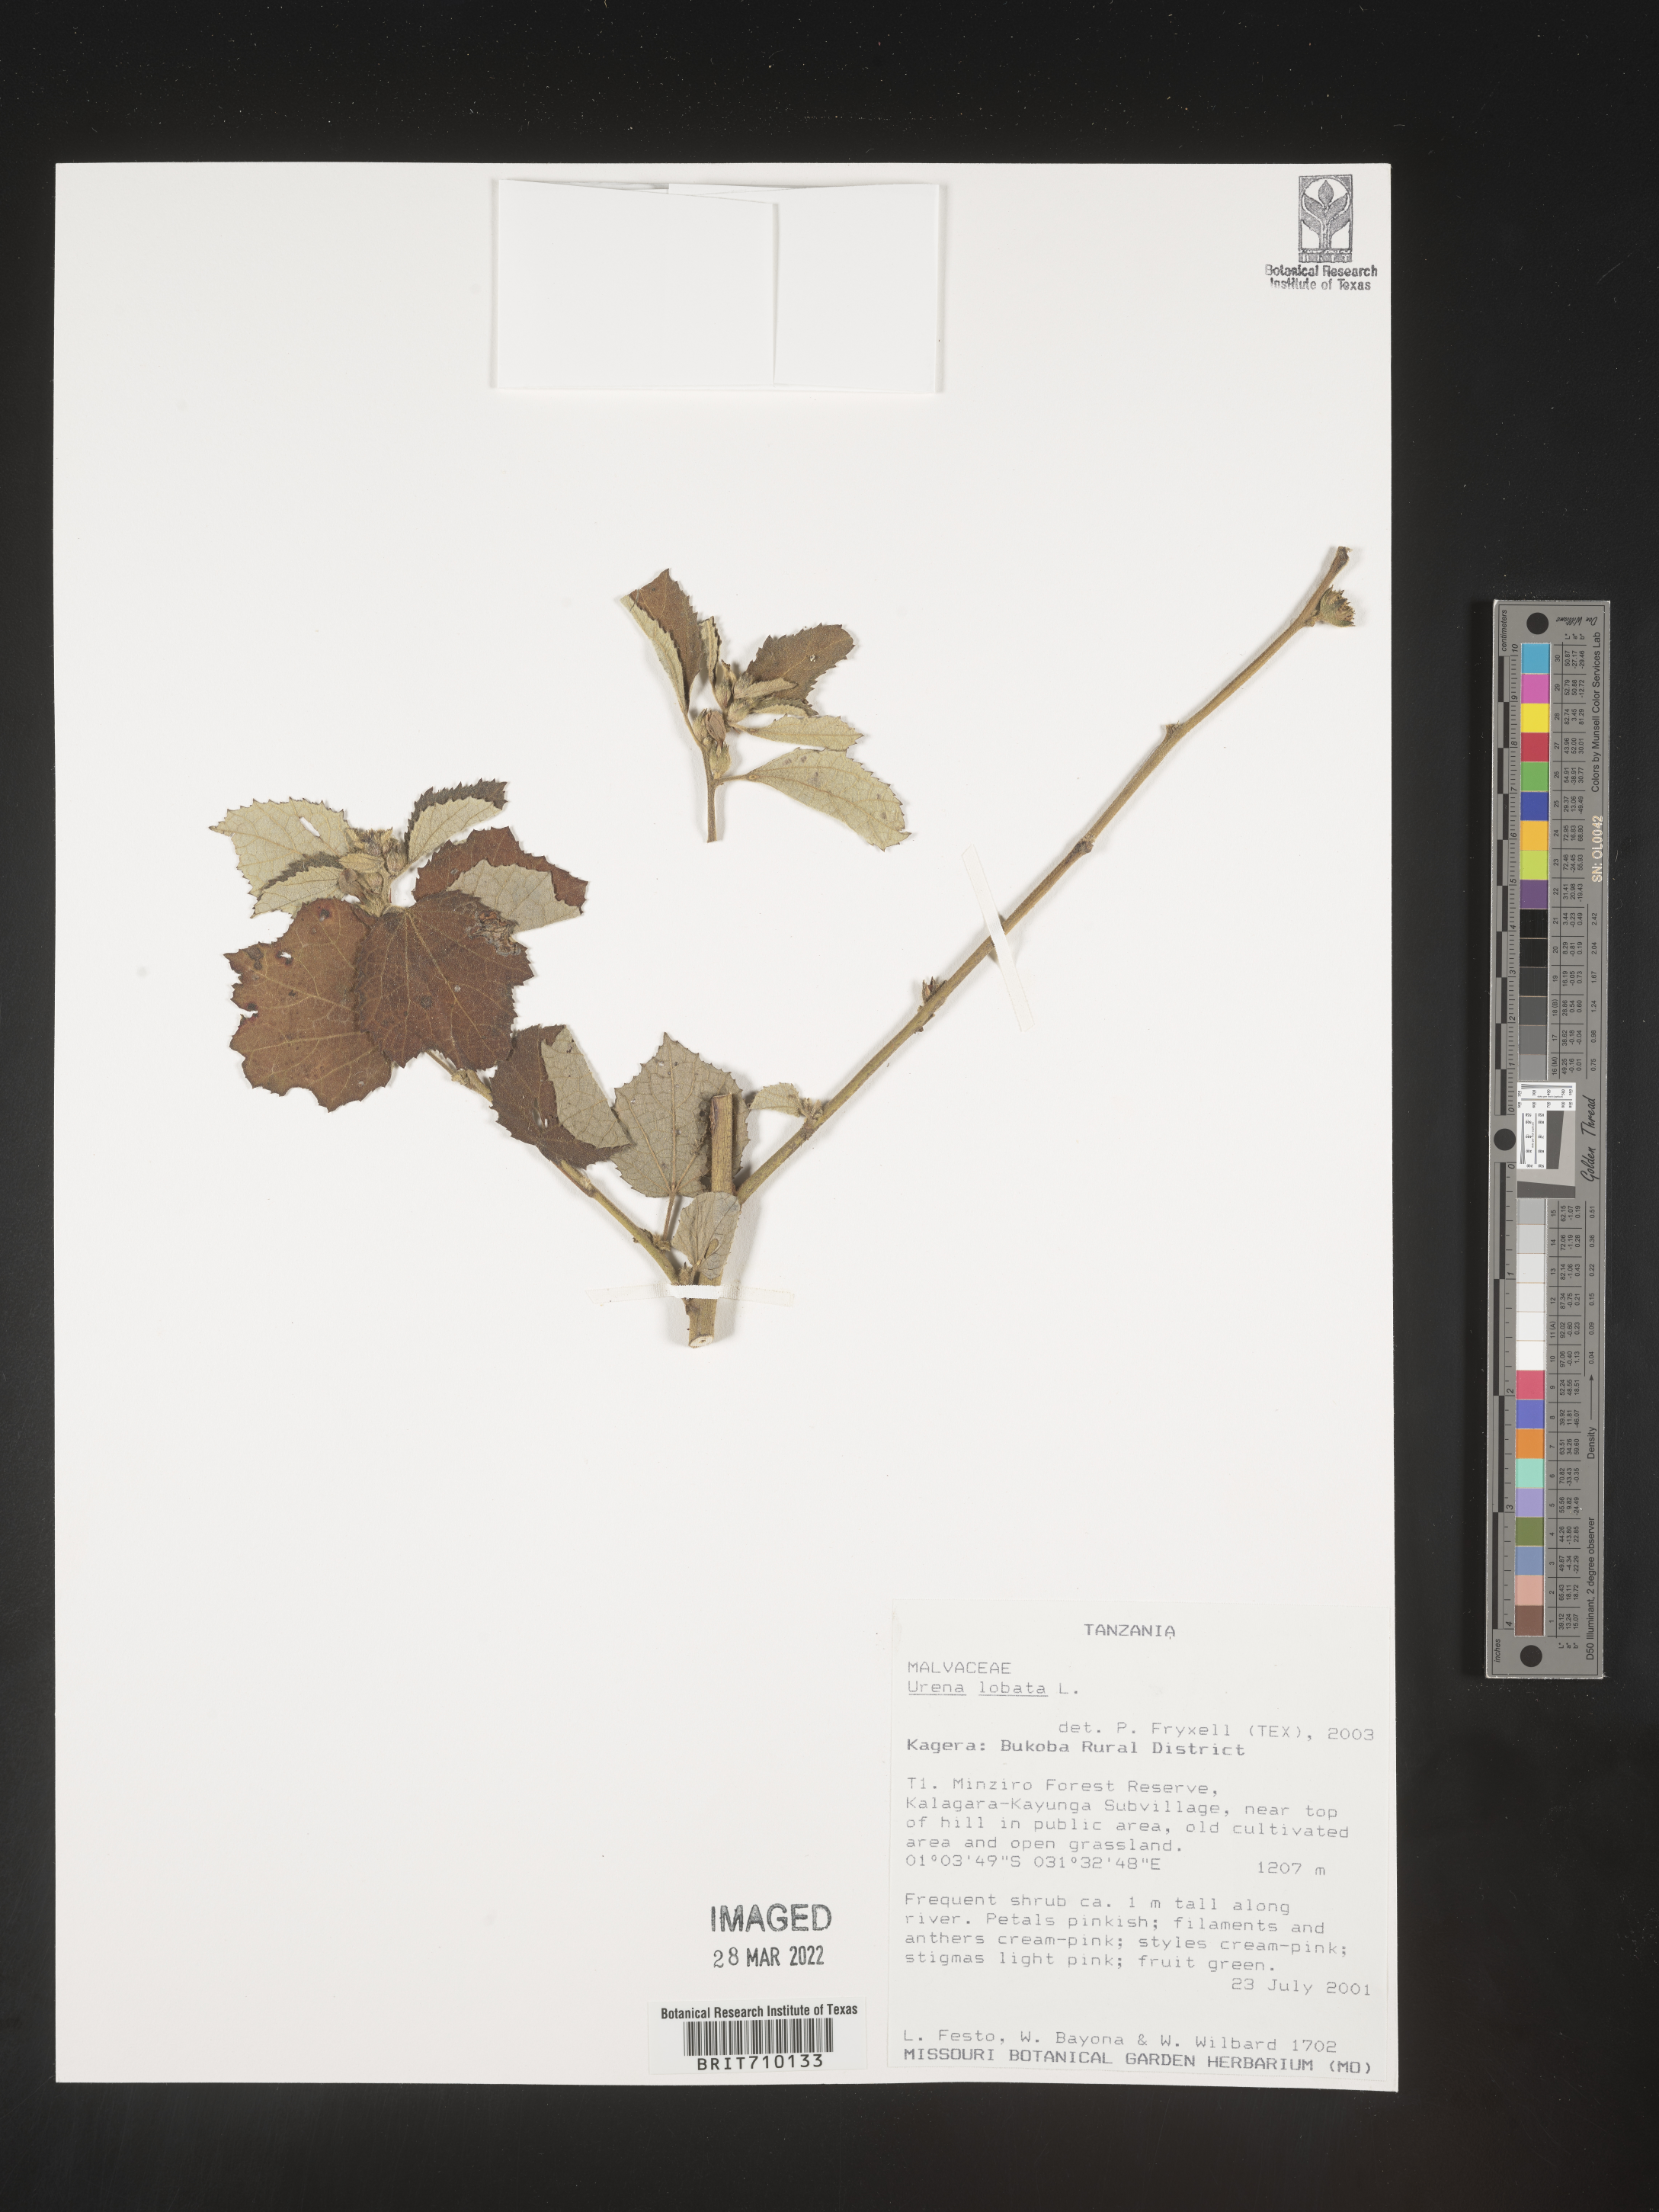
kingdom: Plantae
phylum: Tracheophyta
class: Magnoliopsida
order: Malvales
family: Malvaceae
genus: Urena
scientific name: Urena
